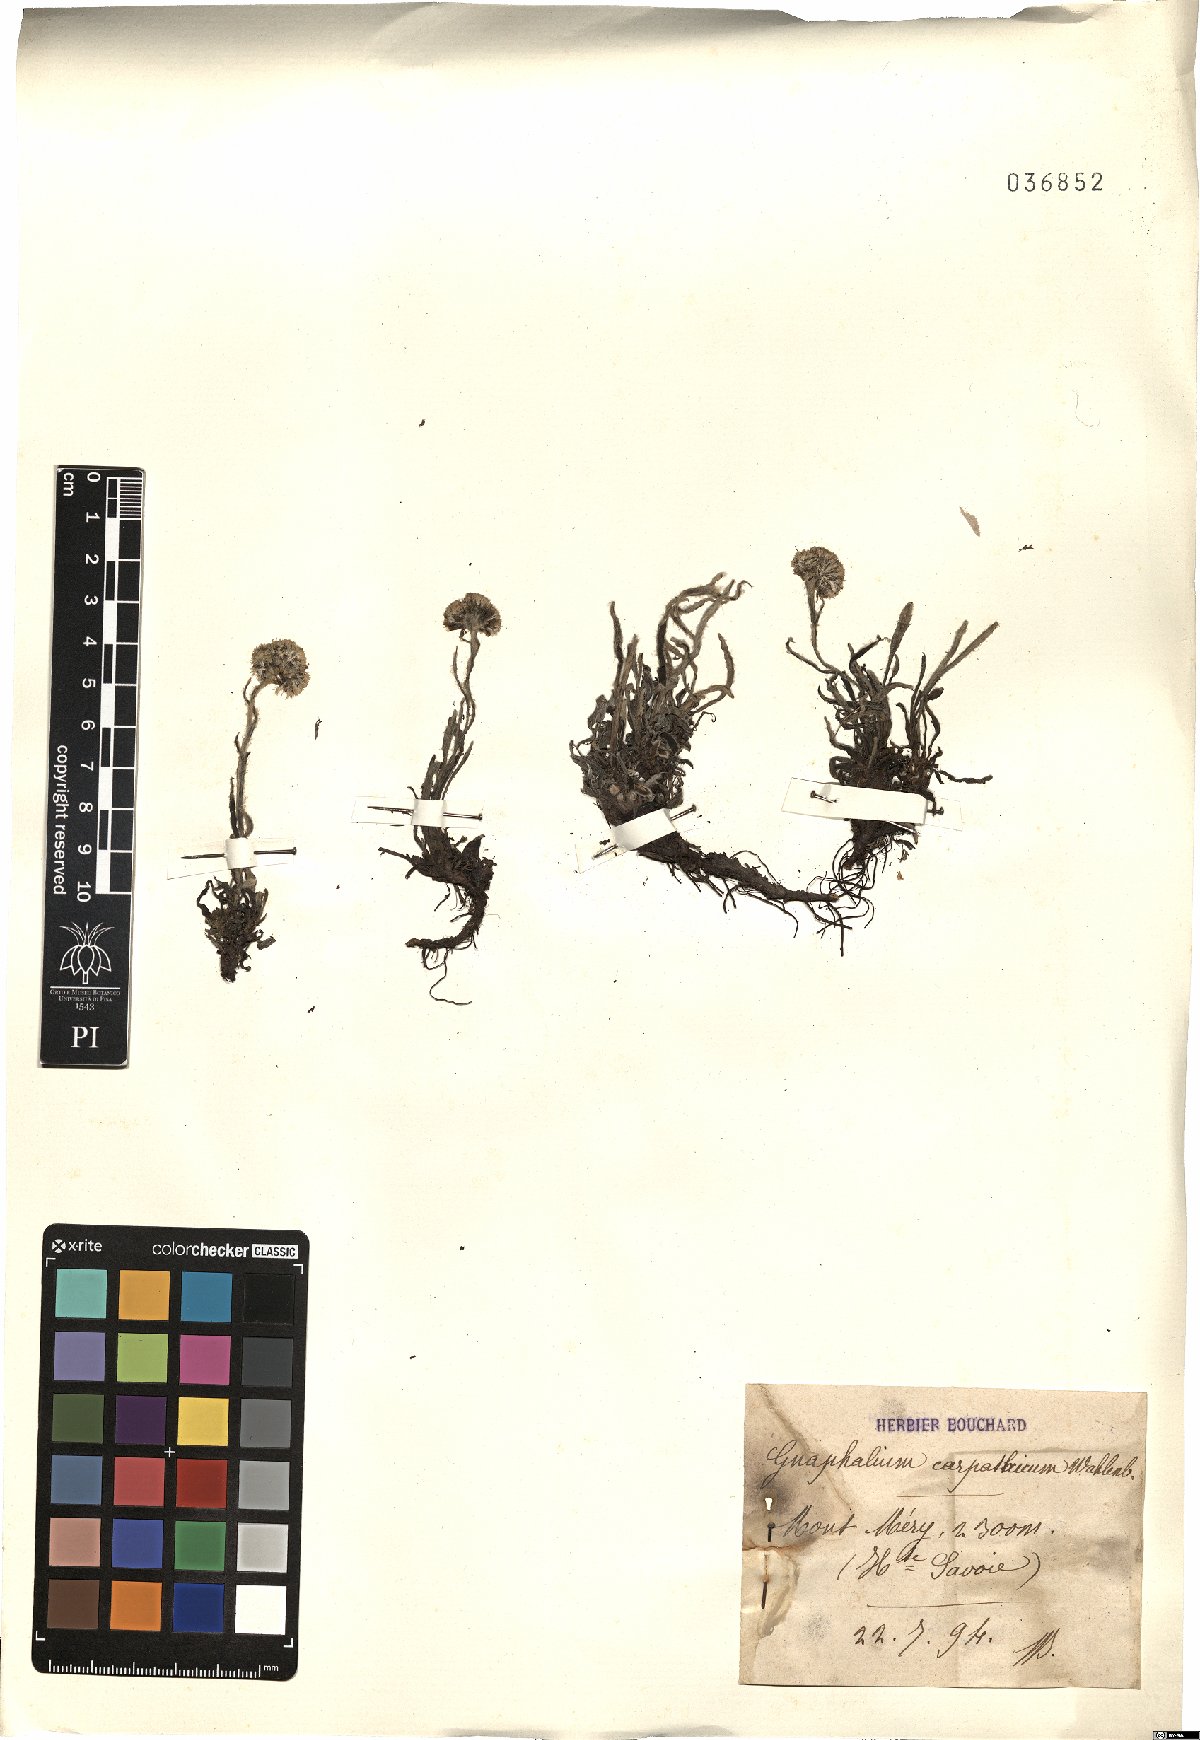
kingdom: Plantae
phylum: Tracheophyta
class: Magnoliopsida
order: Asterales
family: Asteraceae
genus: Antennaria
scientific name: Antennaria carpatica
